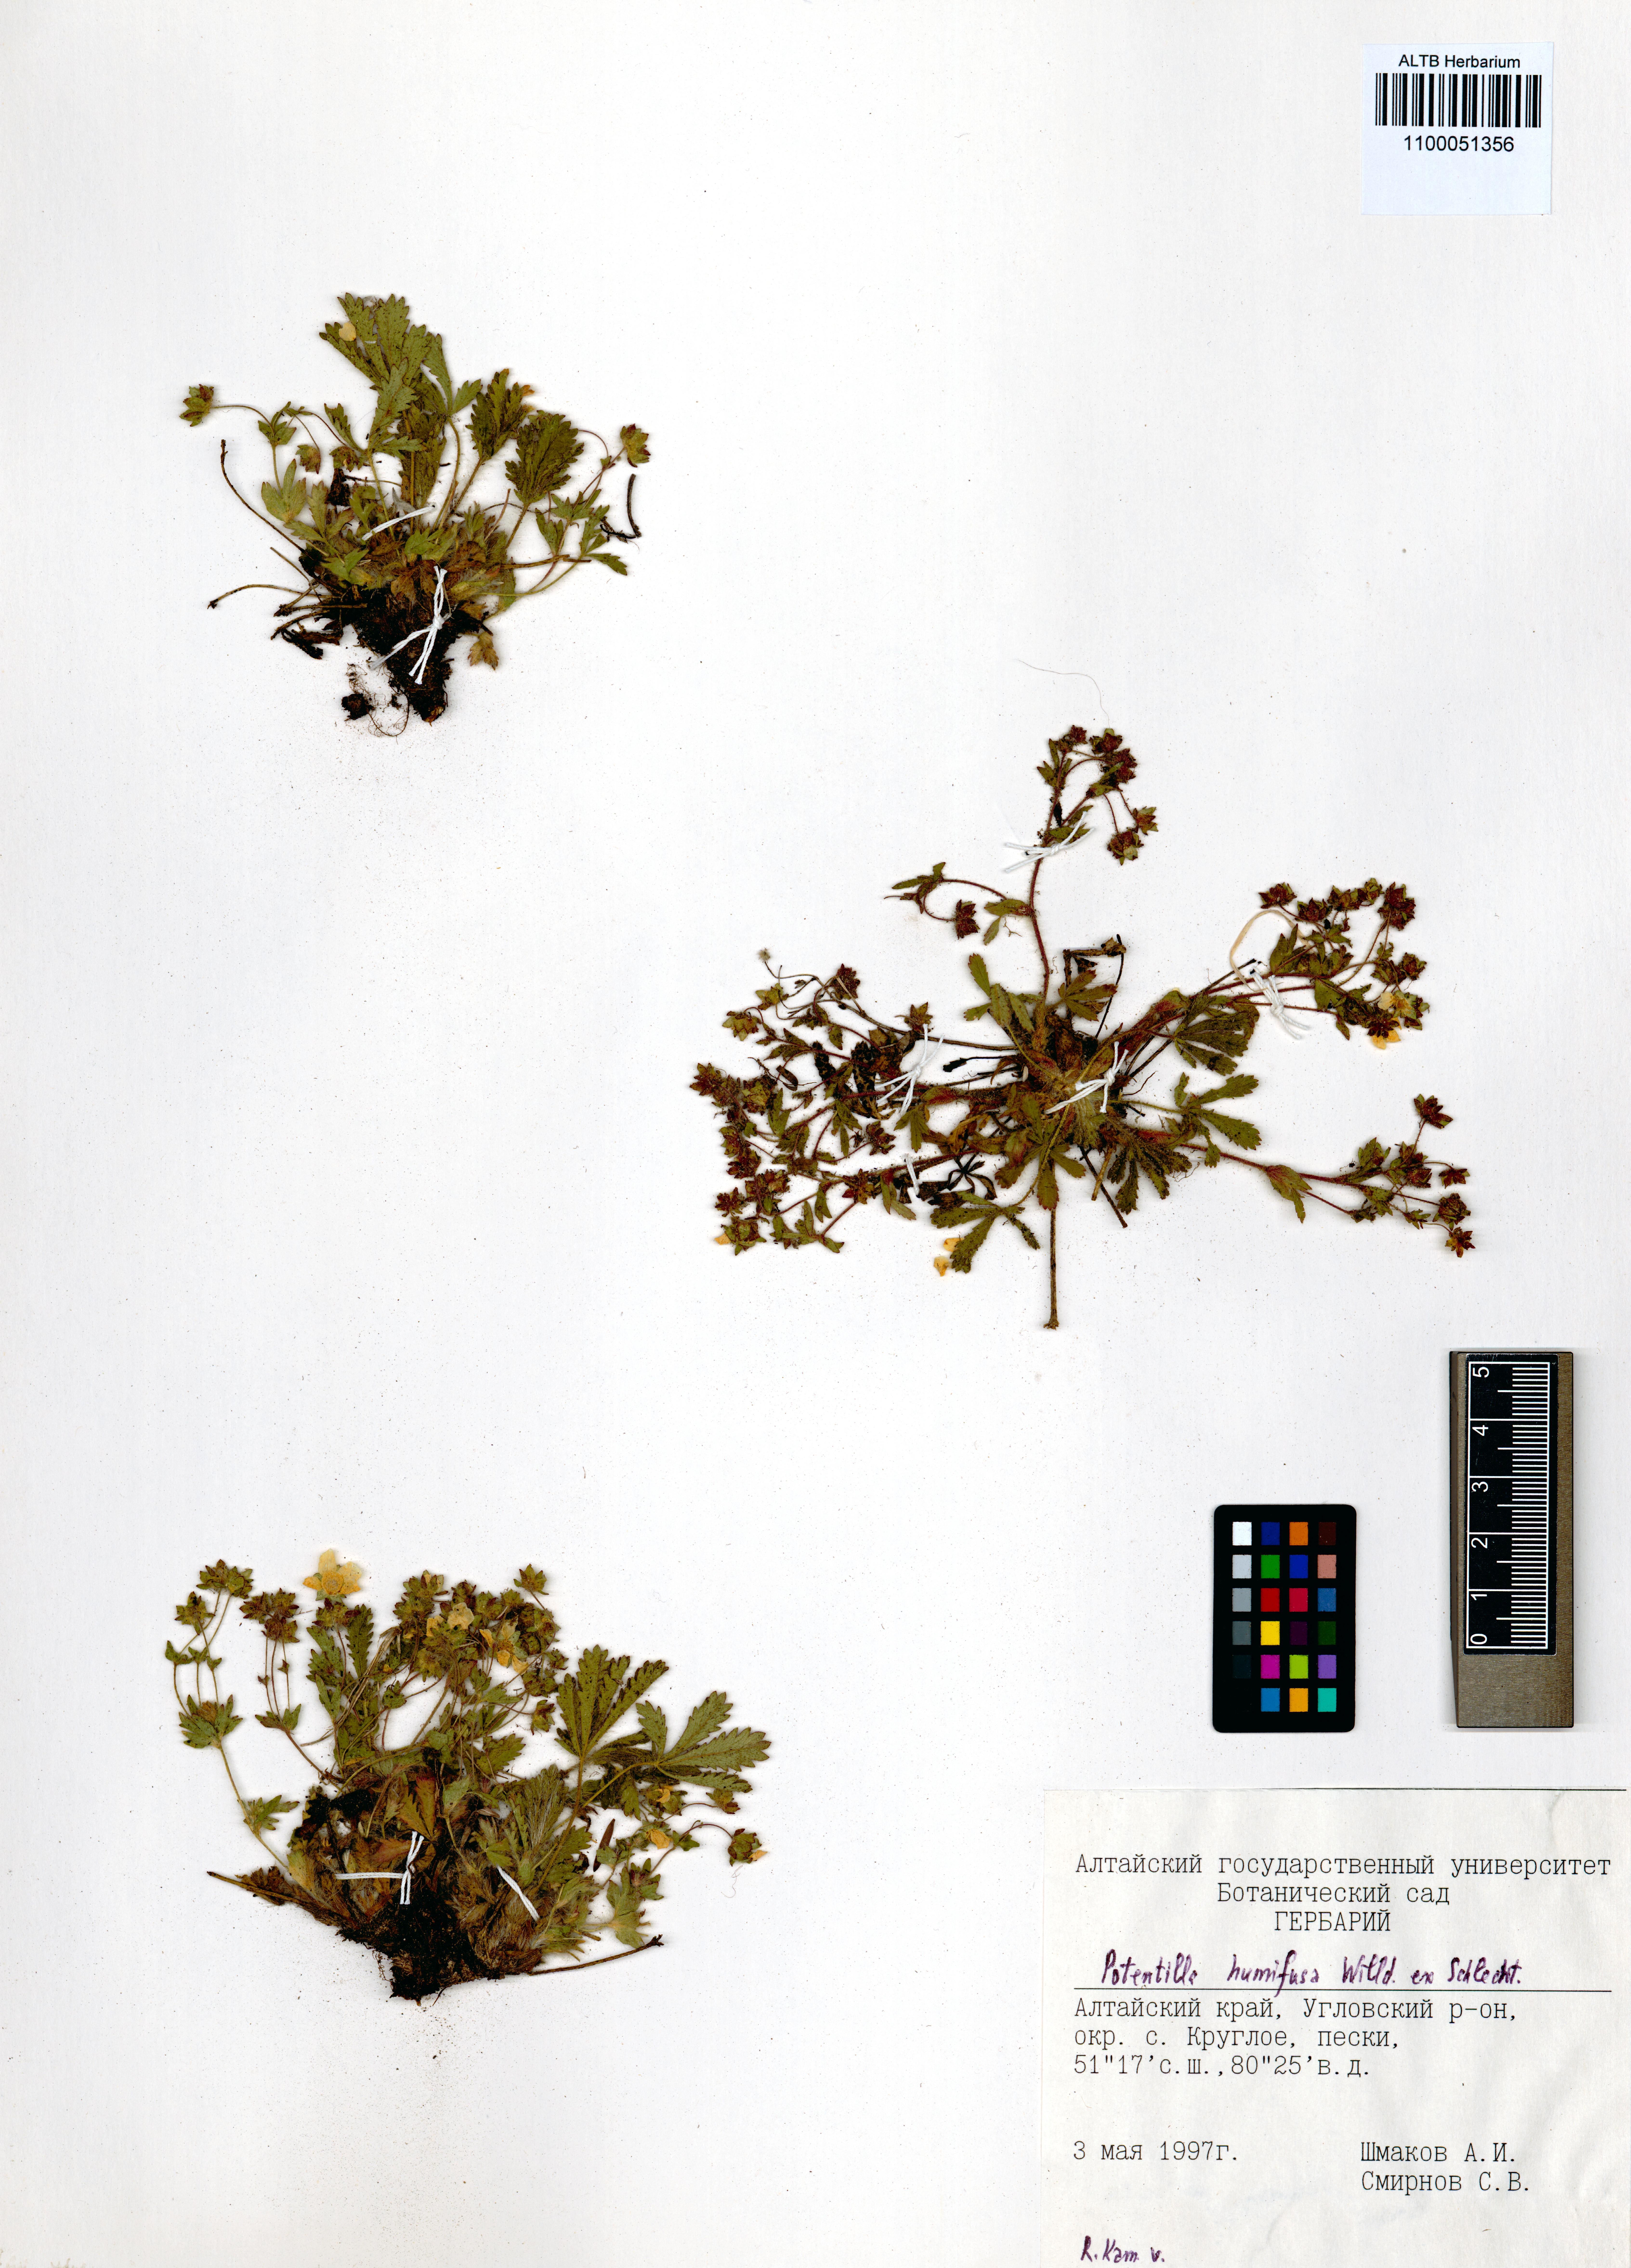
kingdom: Plantae
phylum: Tracheophyta
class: Magnoliopsida
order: Rosales
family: Rosaceae
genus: Potentilla
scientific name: Potentilla humifusa
